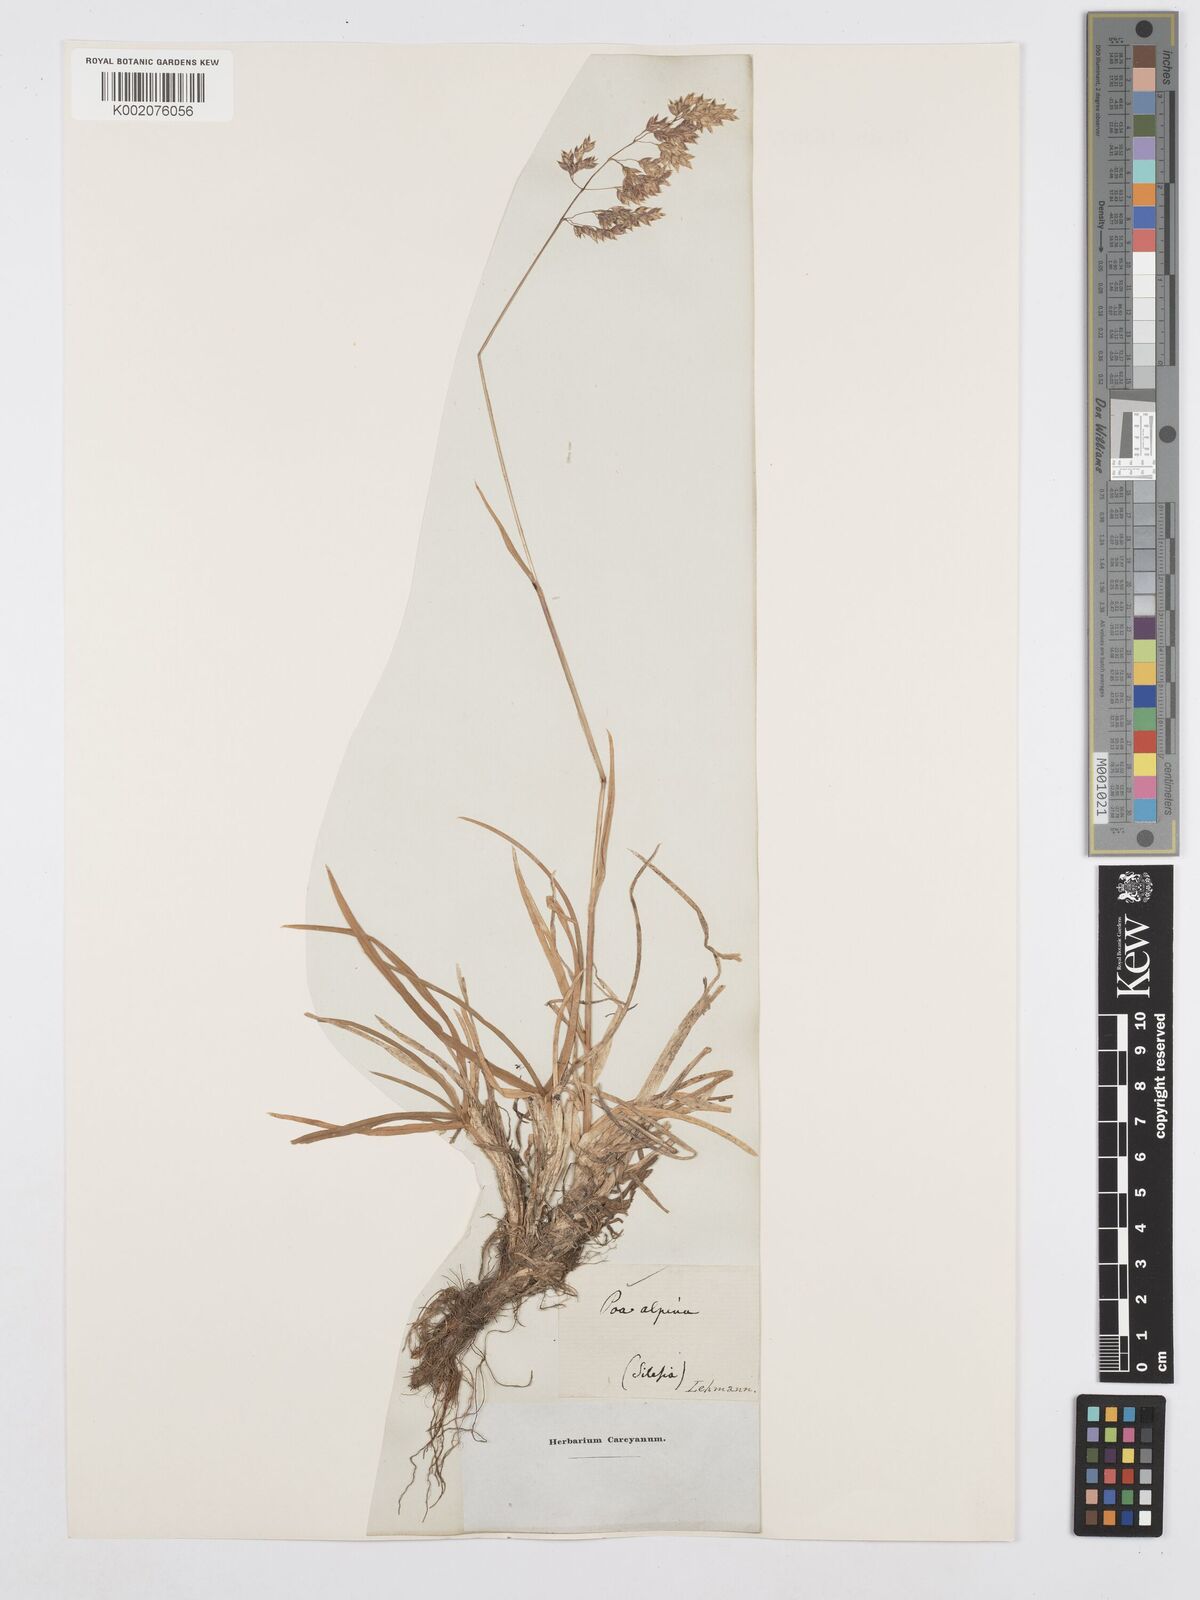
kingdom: Plantae
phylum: Tracheophyta
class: Liliopsida
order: Poales
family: Poaceae
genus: Poa
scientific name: Poa alpina
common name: Alpine bluegrass
